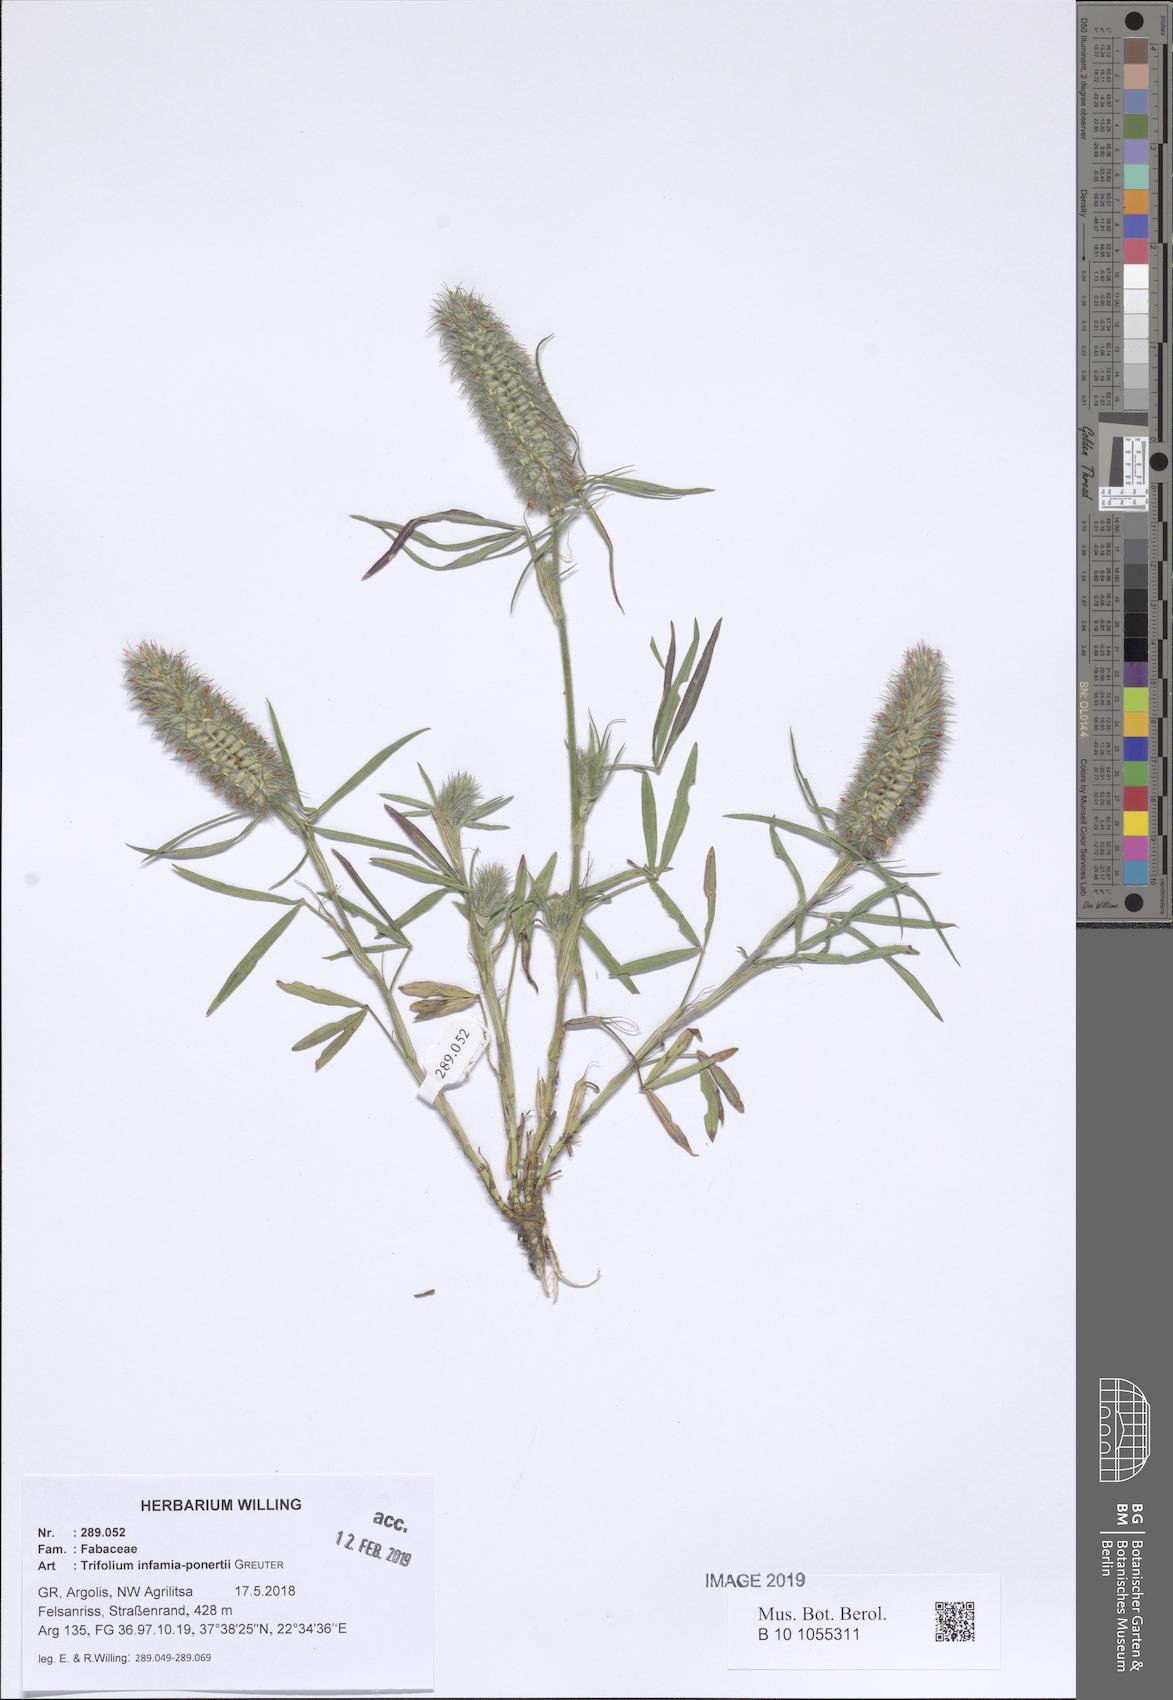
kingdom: Plantae
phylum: Tracheophyta
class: Magnoliopsida
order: Fabales
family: Fabaceae
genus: Trifolium
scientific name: Trifolium infamia-ponertii
